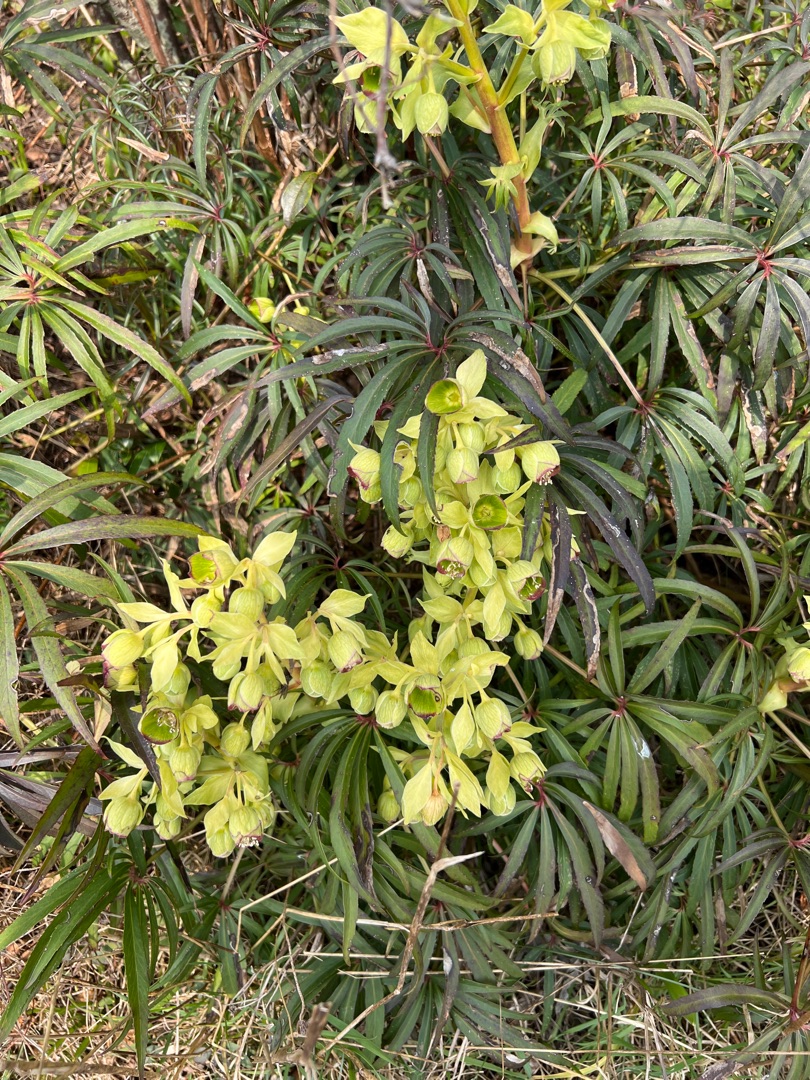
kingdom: Plantae
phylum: Tracheophyta
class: Magnoliopsida
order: Ranunculales
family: Ranunculaceae
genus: Helleborus
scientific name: Helleborus foetidus
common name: Stinkende julerose
